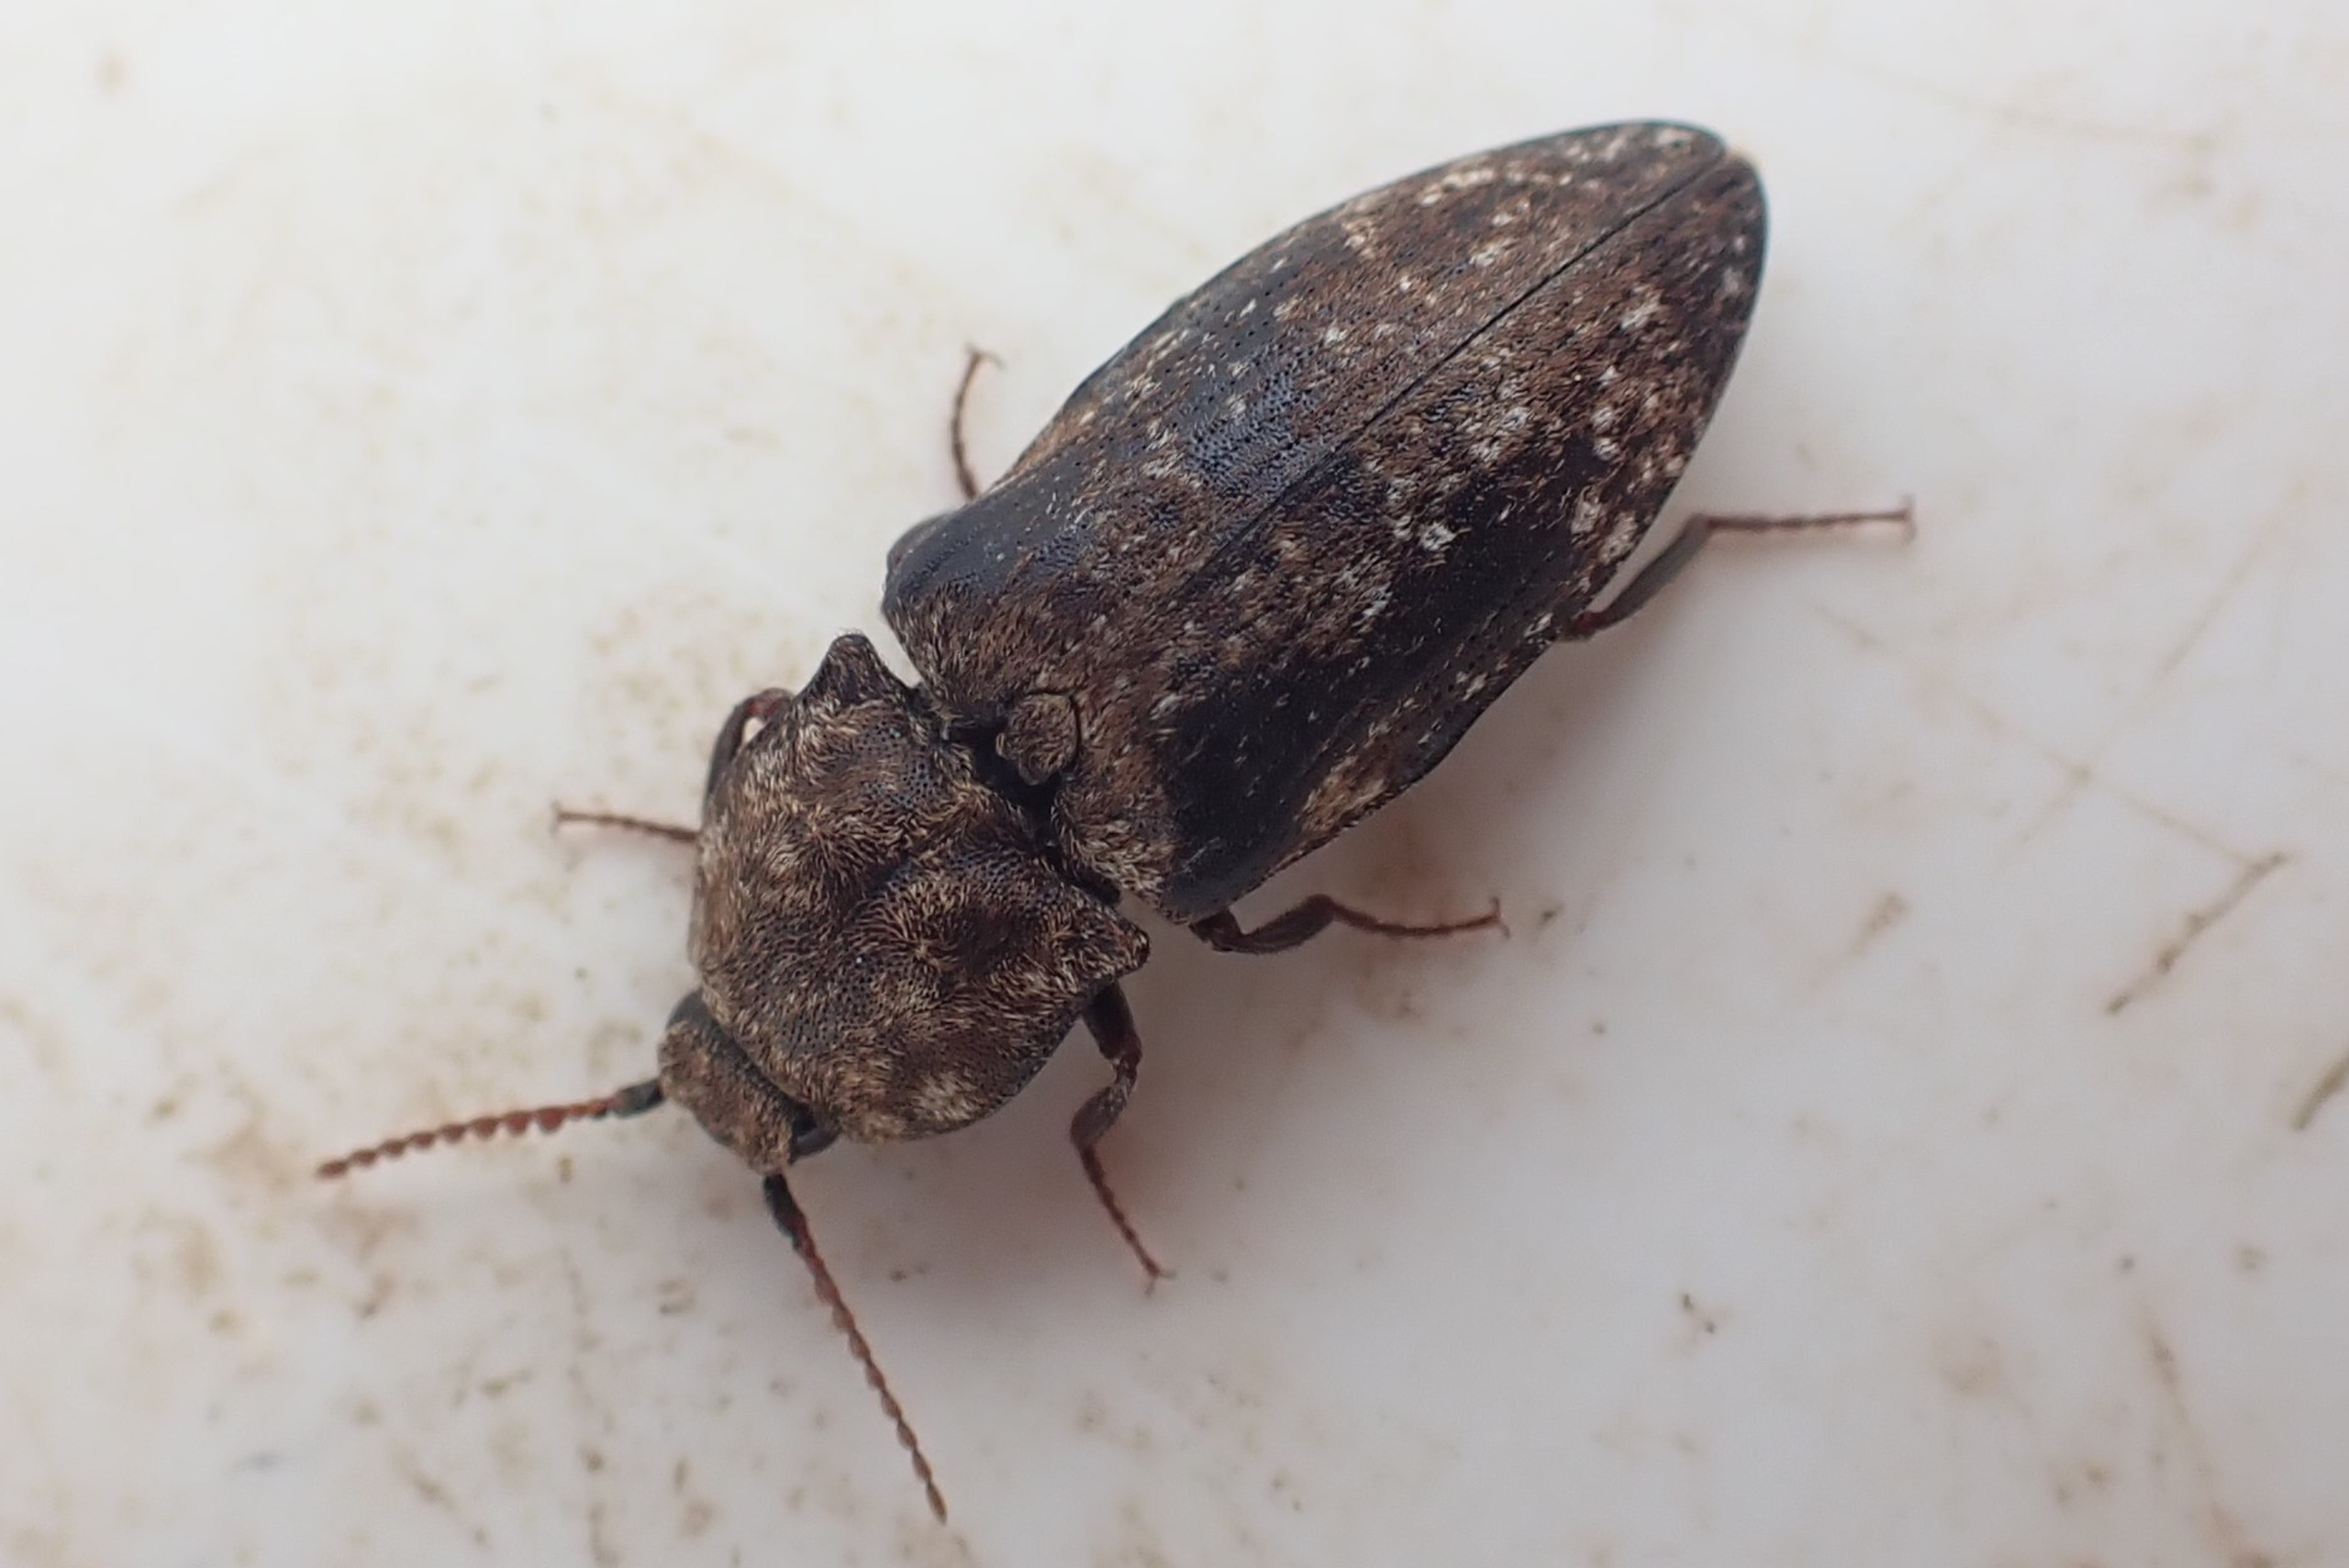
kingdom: Animalia
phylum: Arthropoda
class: Insecta
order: Coleoptera
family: Elateridae
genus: Agrypnus
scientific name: Agrypnus murinus
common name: Musegrå smælder
